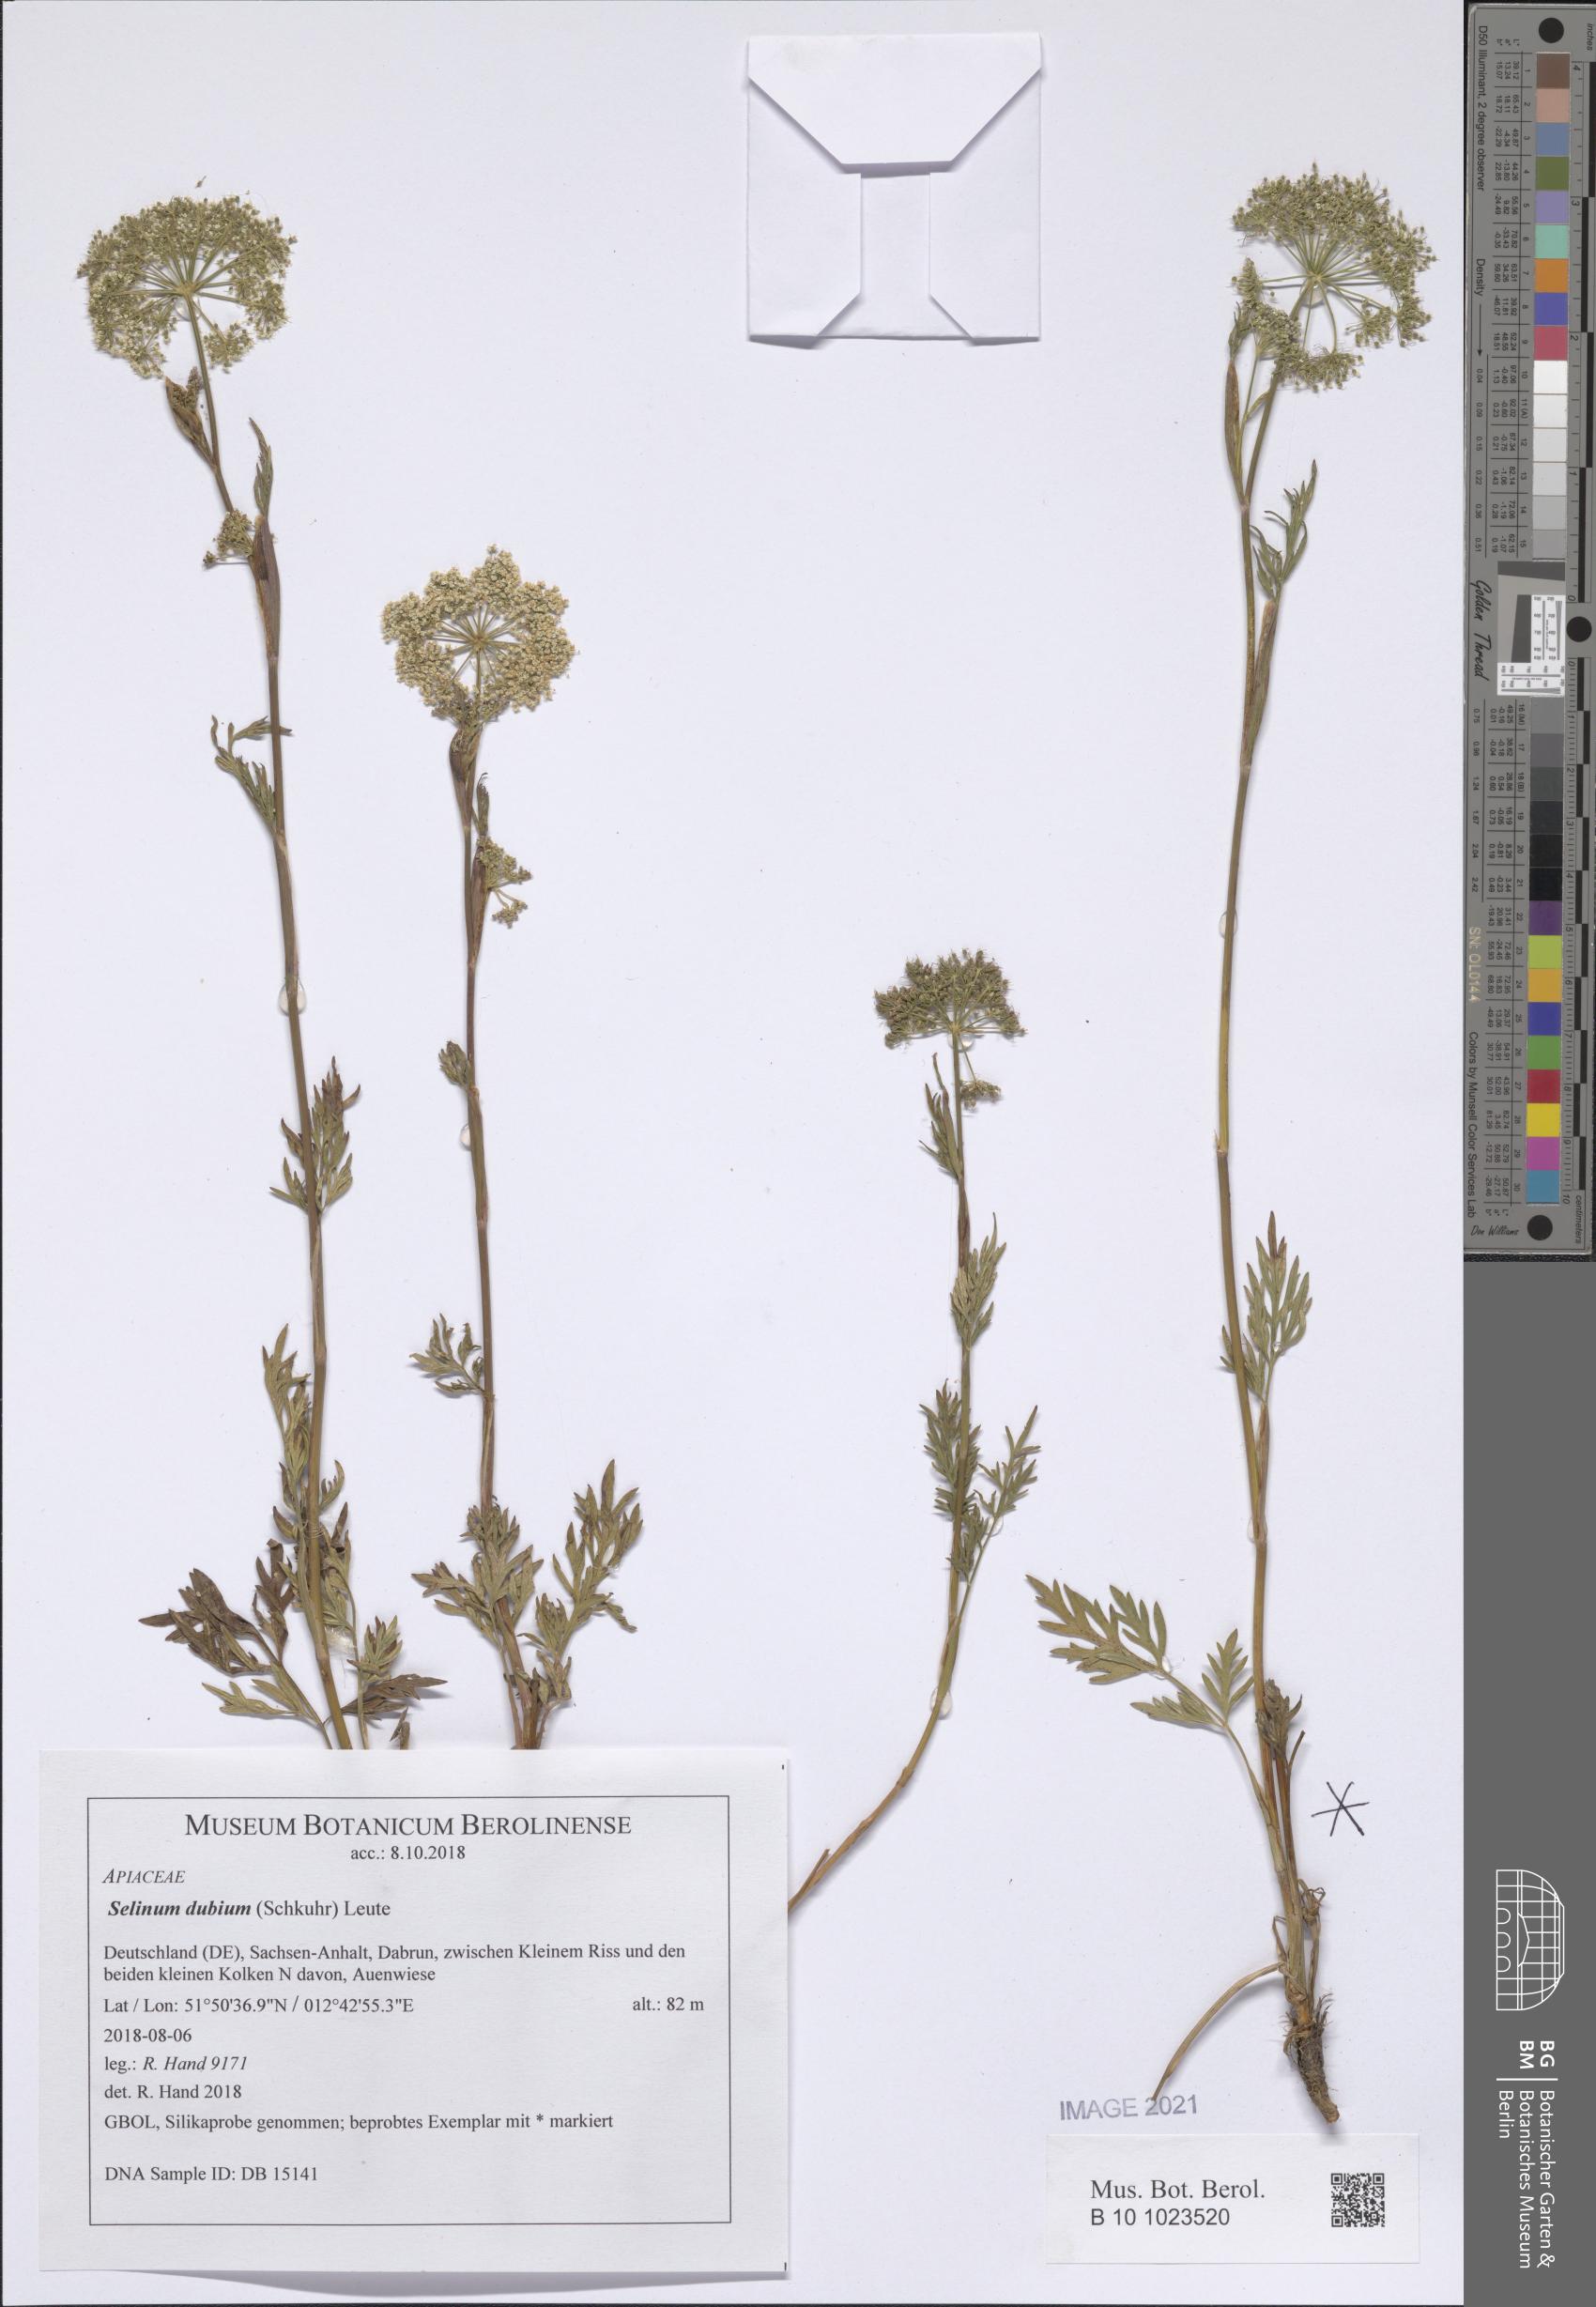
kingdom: Plantae
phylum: Tracheophyta
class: Magnoliopsida
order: Apiales
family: Apiaceae
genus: Kadenia
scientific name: Kadenia dubia
